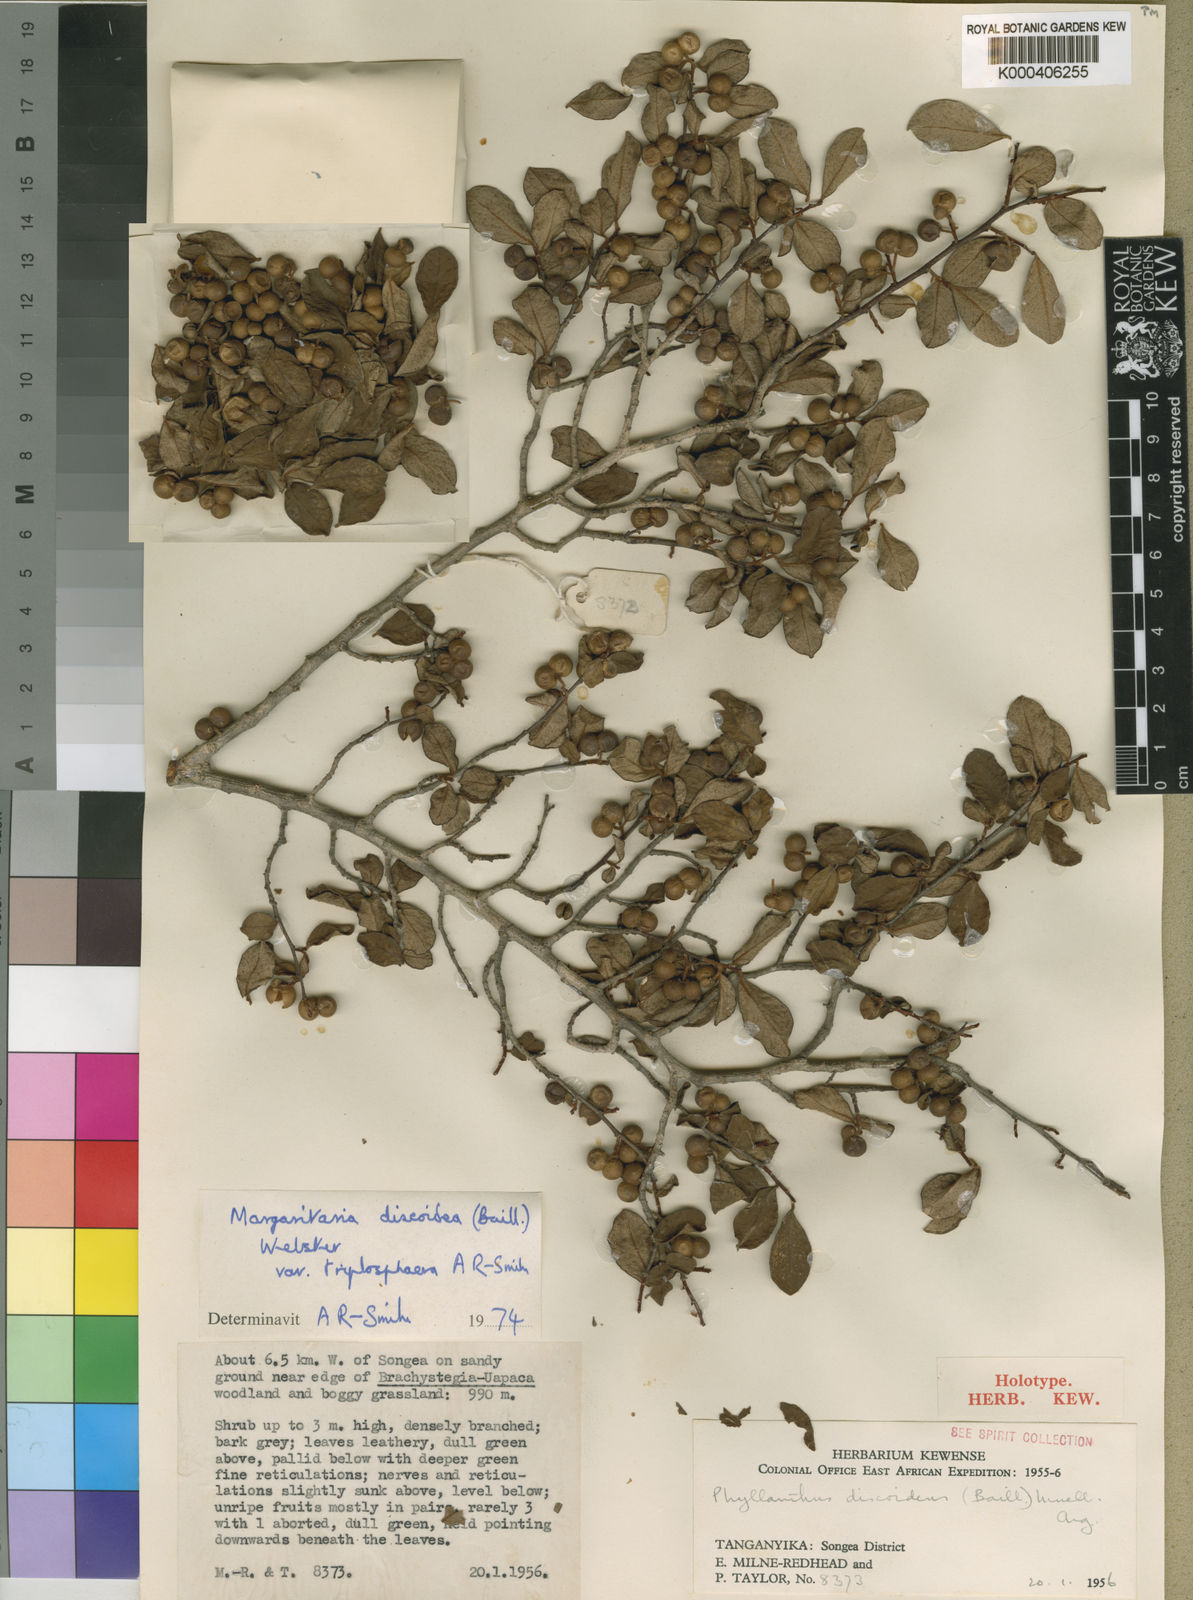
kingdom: Plantae
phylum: Tracheophyta
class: Magnoliopsida
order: Malpighiales
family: Phyllanthaceae
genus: Margaritaria
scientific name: Margaritaria discoidea
